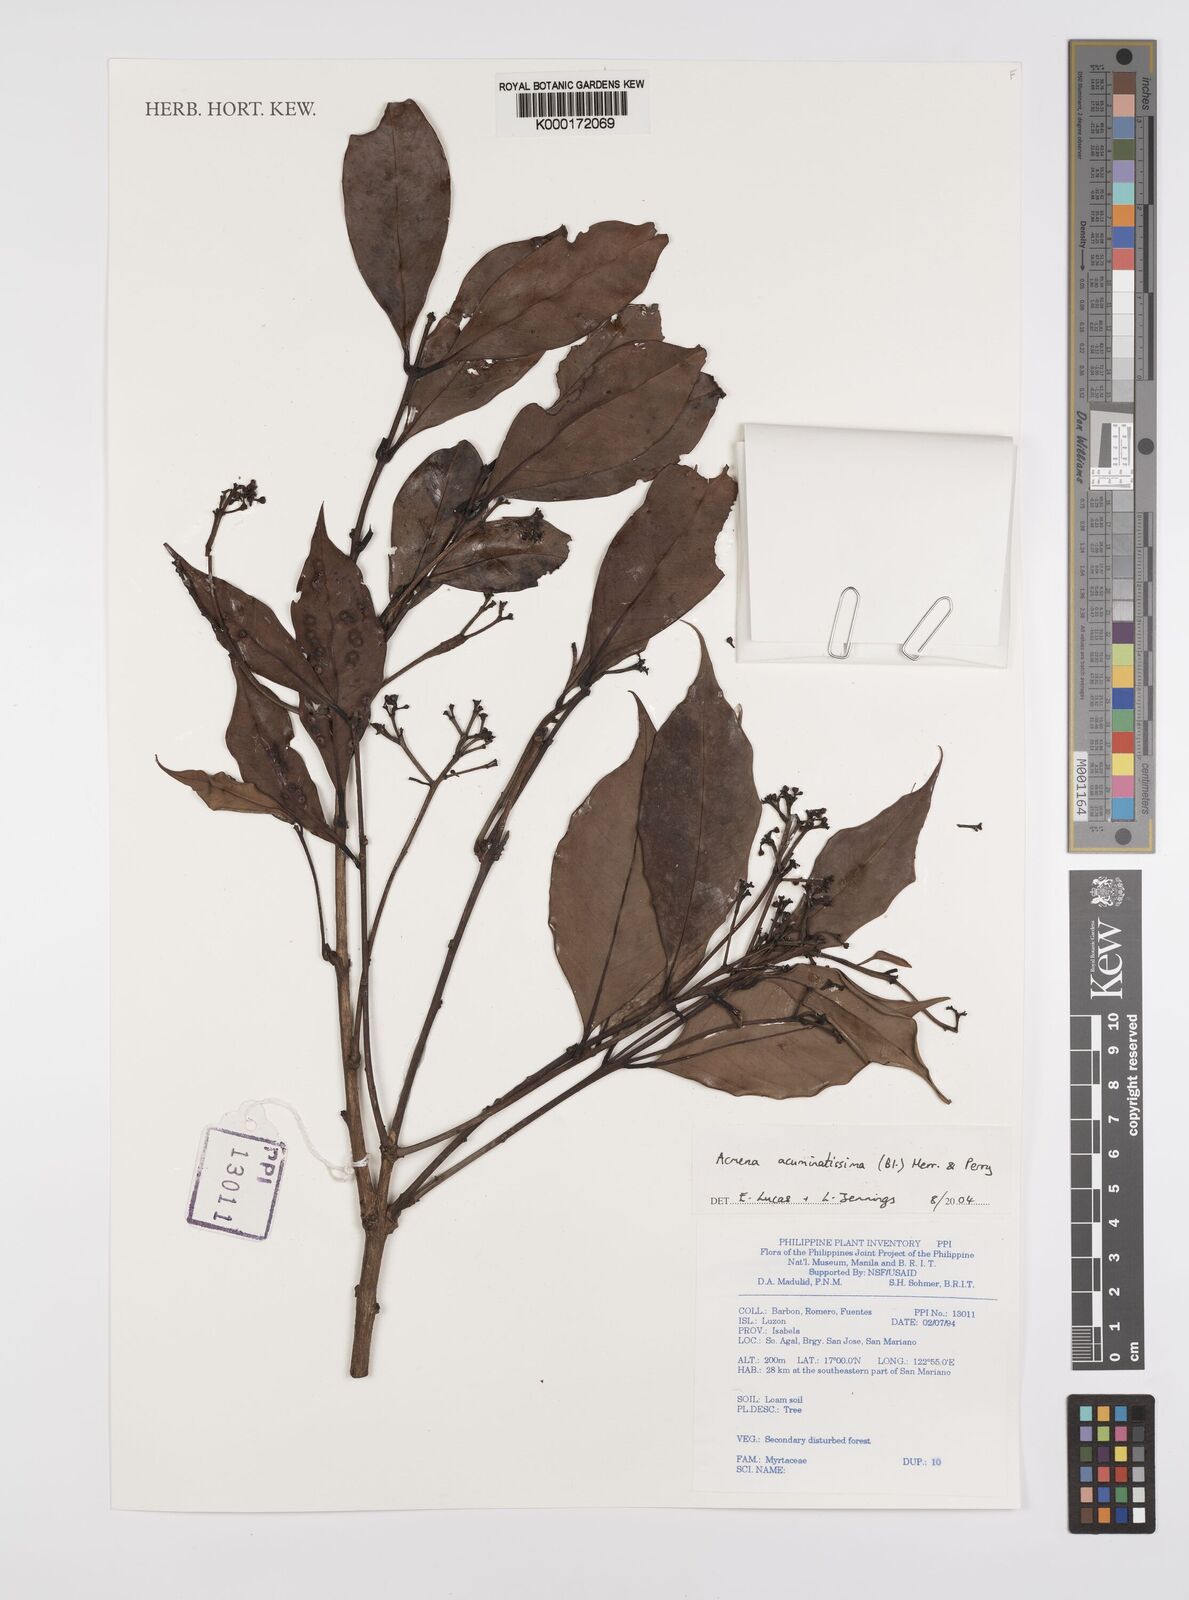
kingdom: Plantae
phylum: Tracheophyta
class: Magnoliopsida
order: Myrtales
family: Myrtaceae
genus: Syzygium
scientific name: Syzygium acuminatissimum
